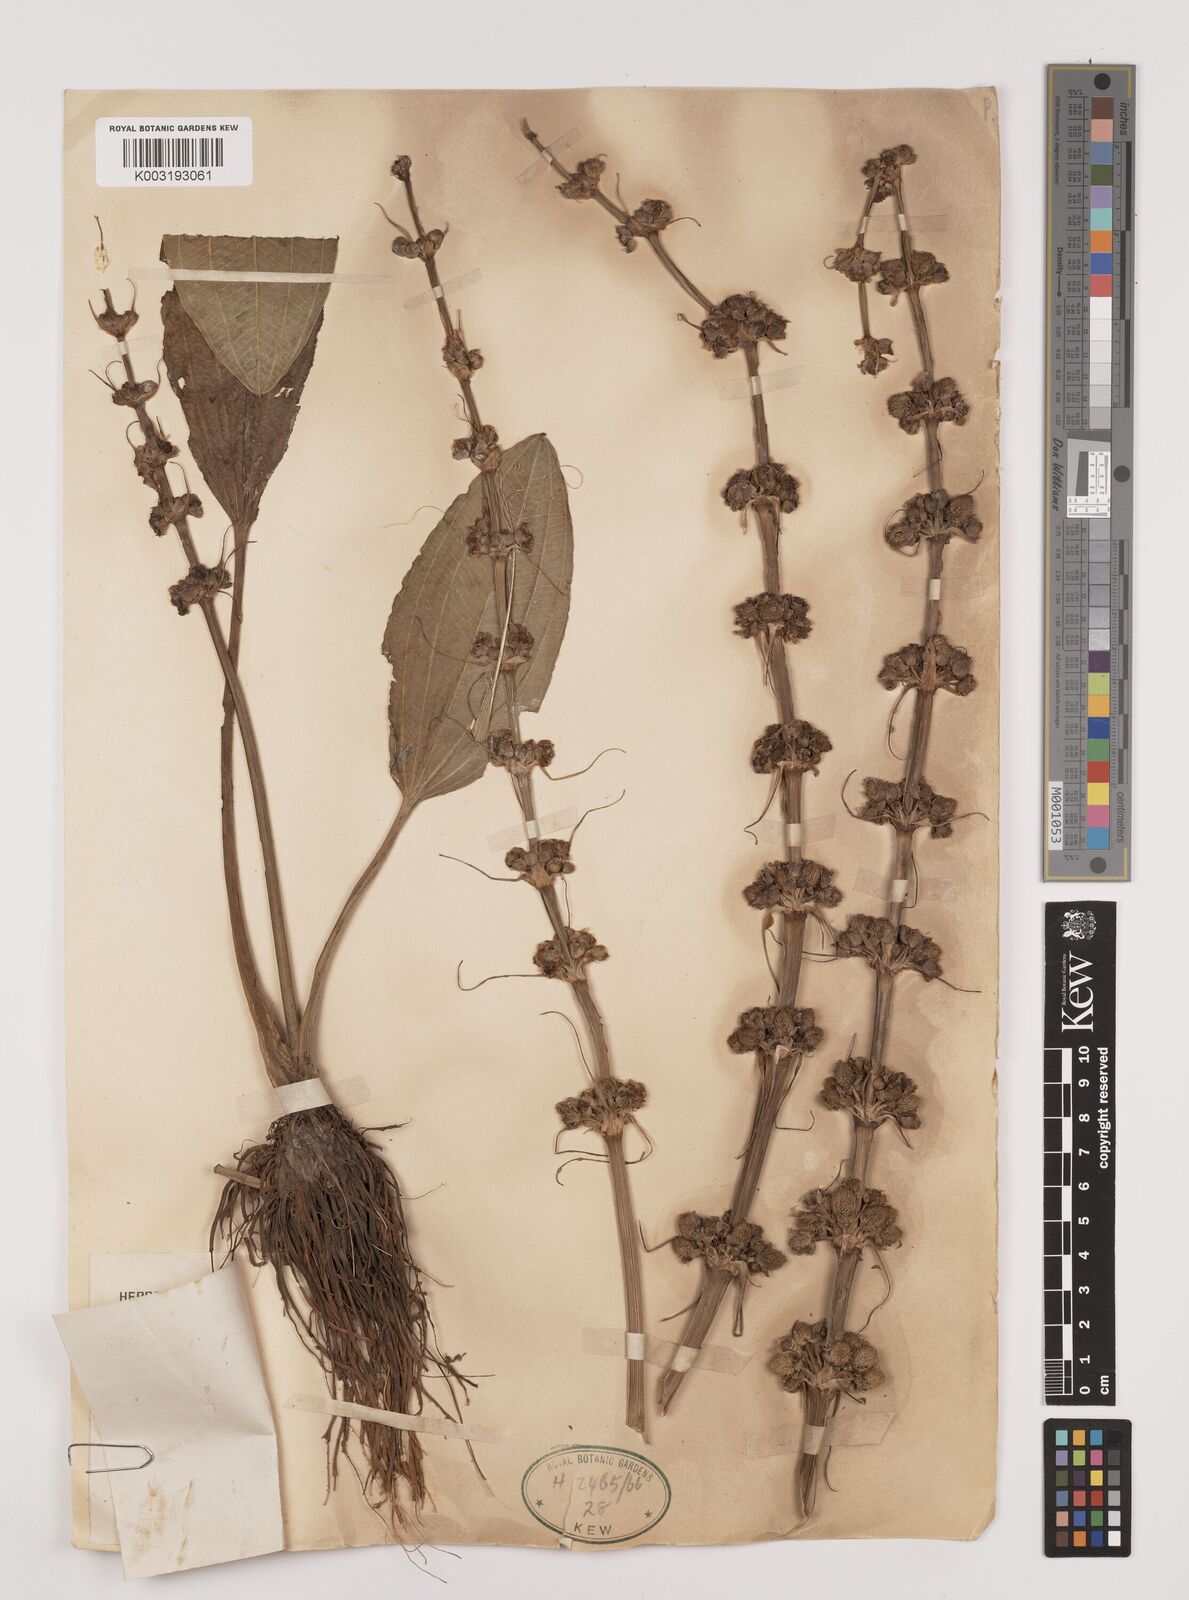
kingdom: Plantae
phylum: Tracheophyta
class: Liliopsida
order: Alismatales
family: Alismataceae
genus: Aquarius
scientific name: Aquarius subulatus
